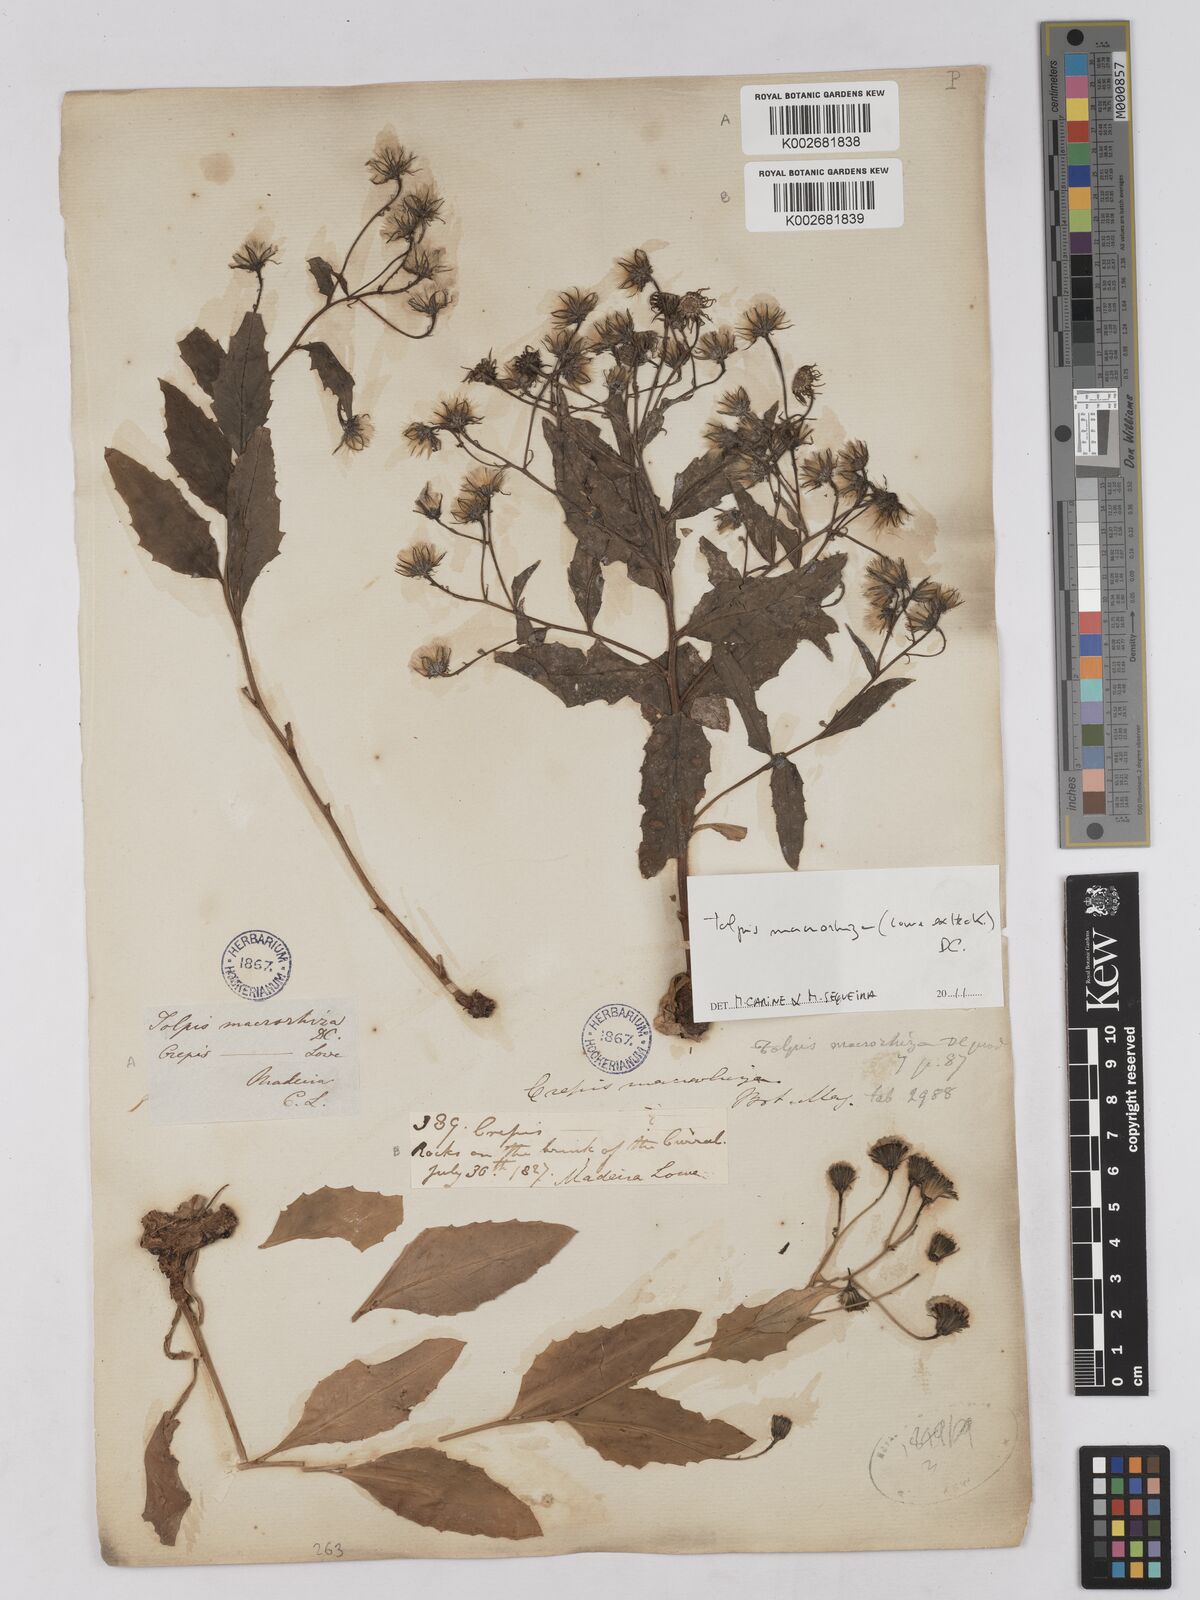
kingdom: Plantae
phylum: Tracheophyta
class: Magnoliopsida
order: Asterales
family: Asteraceae
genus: Tolpis
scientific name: Tolpis macrorhiza
